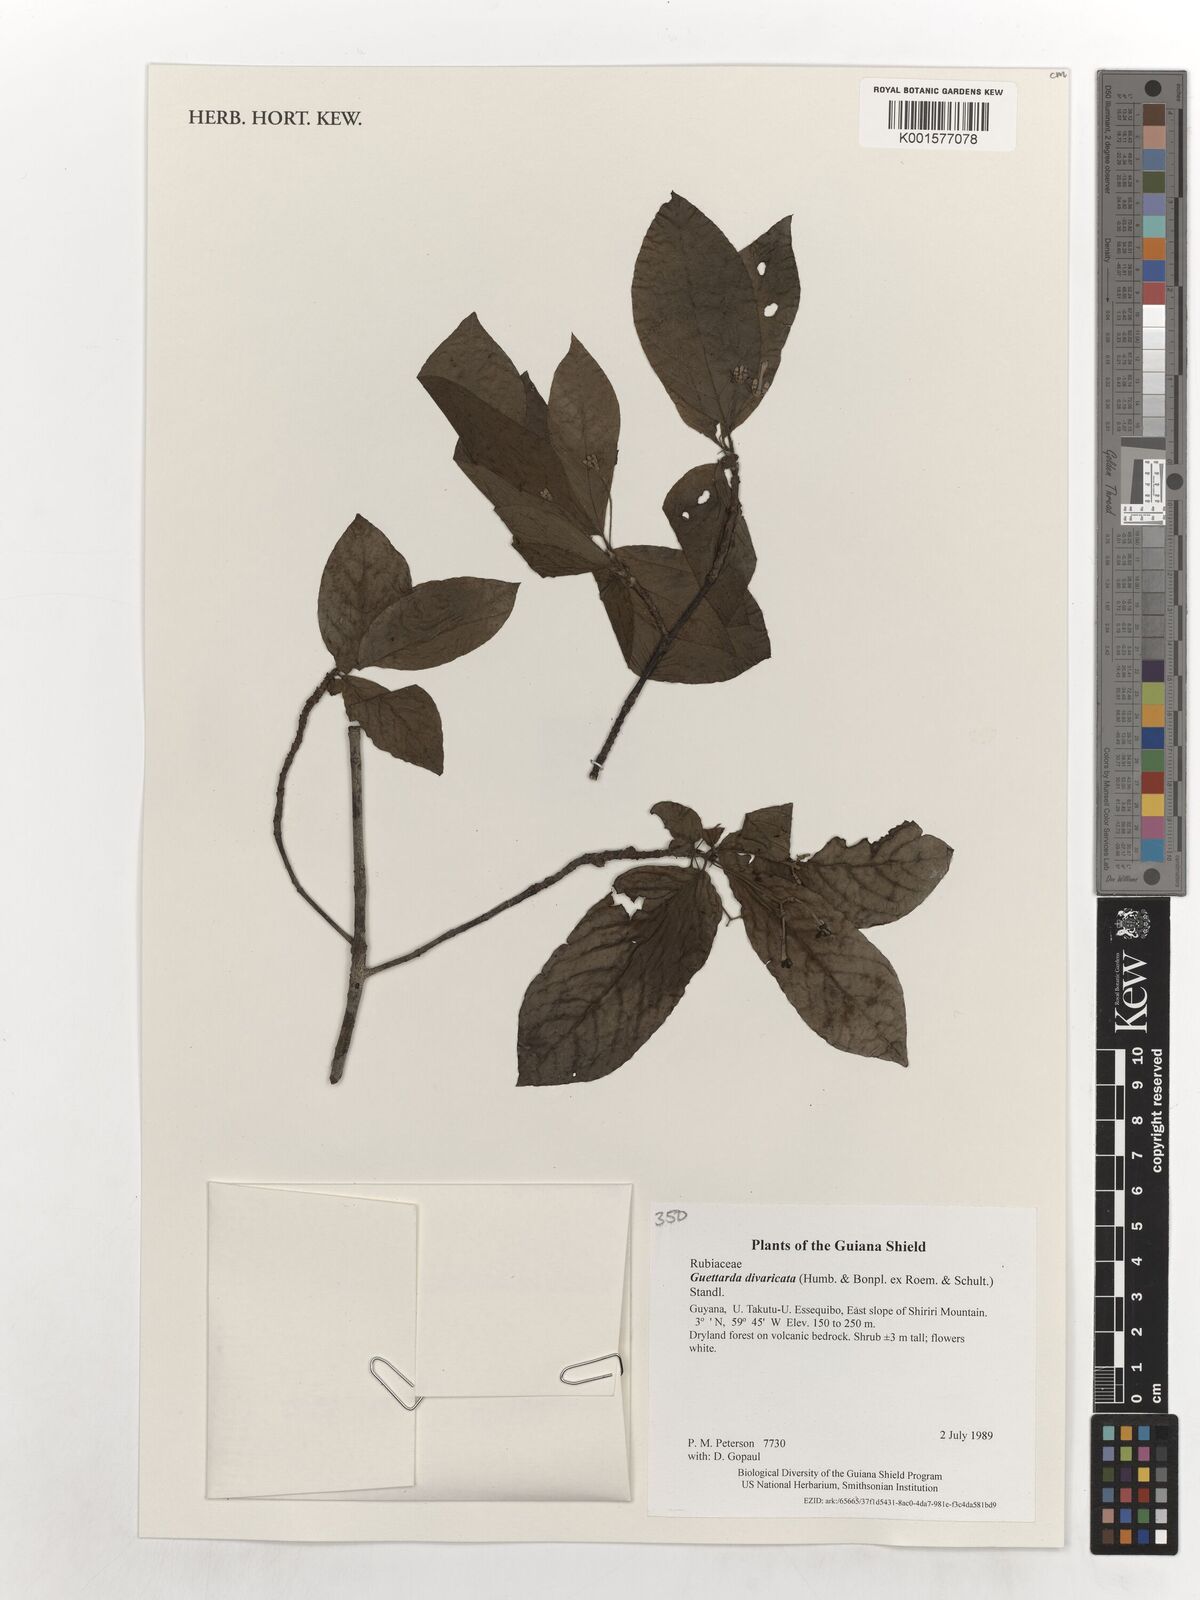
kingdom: Plantae
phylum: Tracheophyta
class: Magnoliopsida
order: Gentianales
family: Rubiaceae
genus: Guettarda
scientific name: Guettarda divaricata
